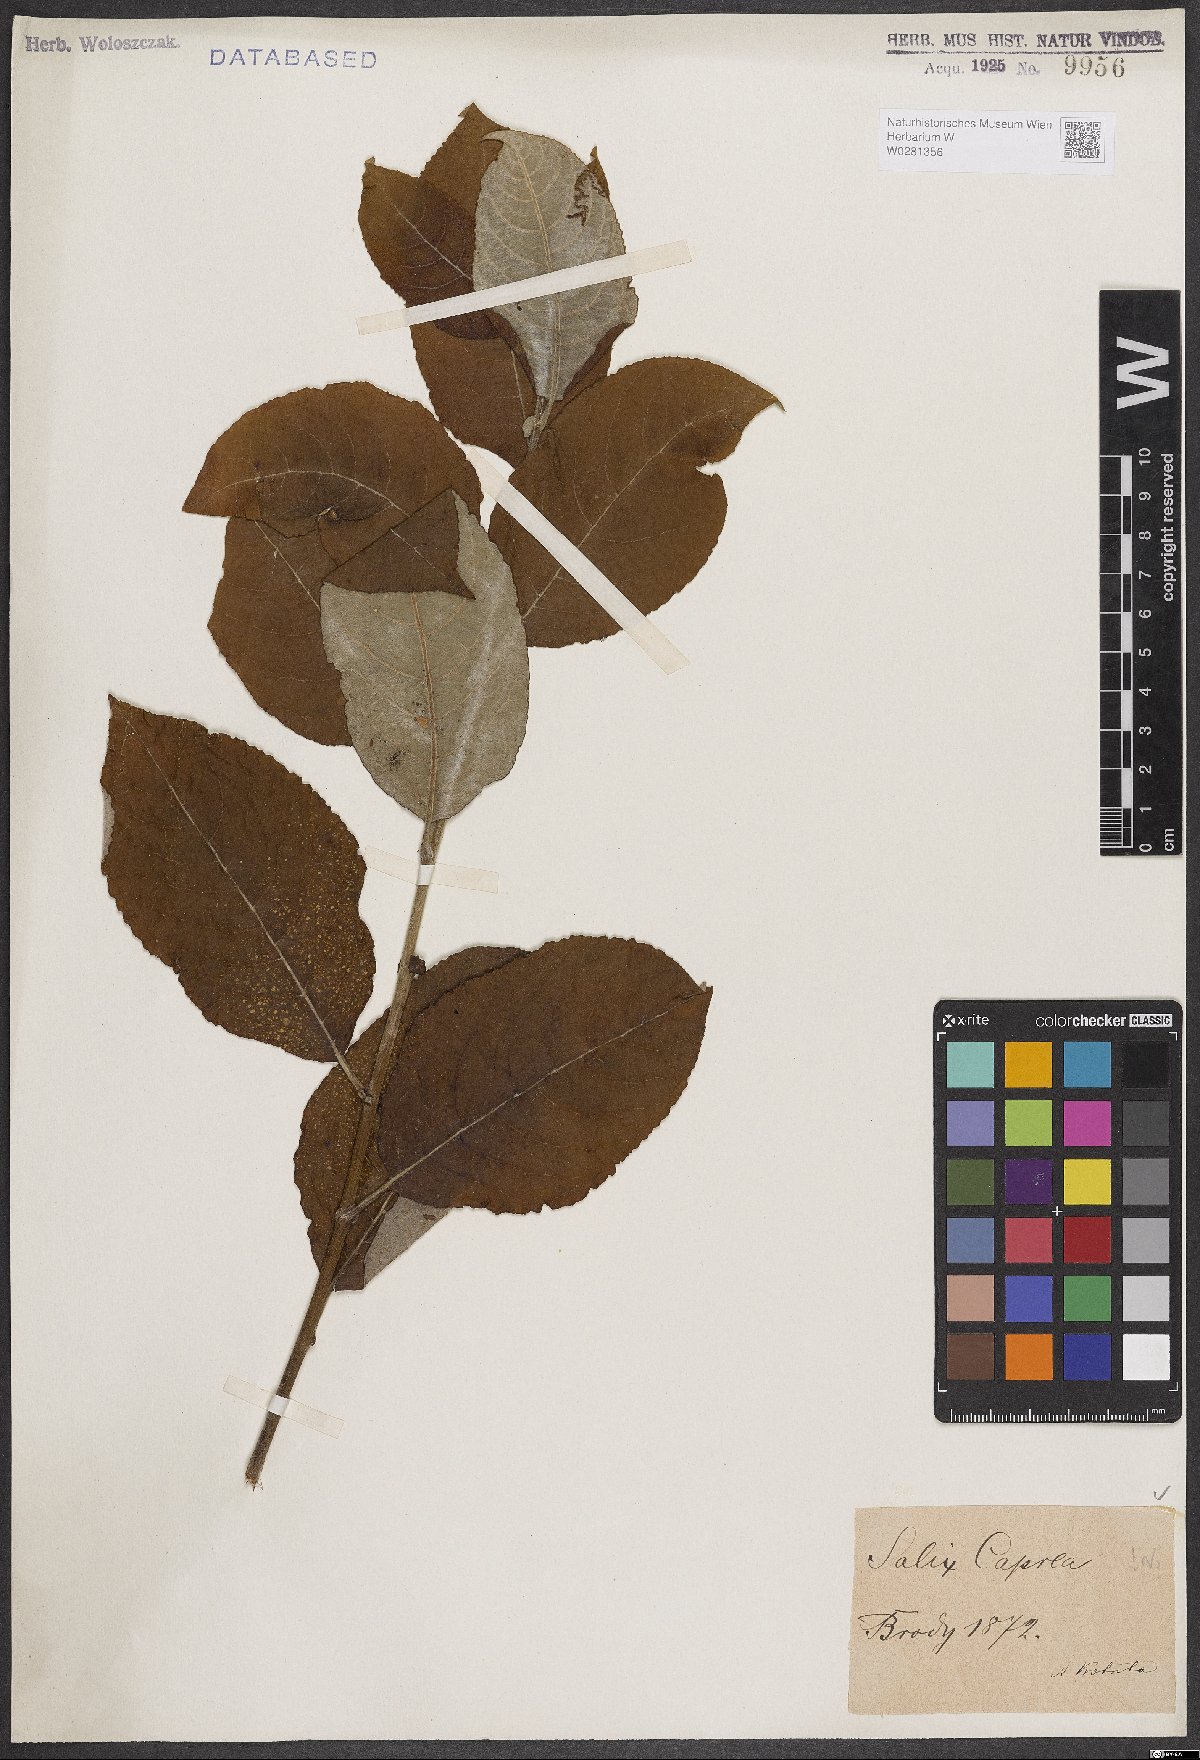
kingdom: Plantae
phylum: Tracheophyta
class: Magnoliopsida
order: Malpighiales
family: Salicaceae
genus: Salix
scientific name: Salix caprea
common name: Goat willow
